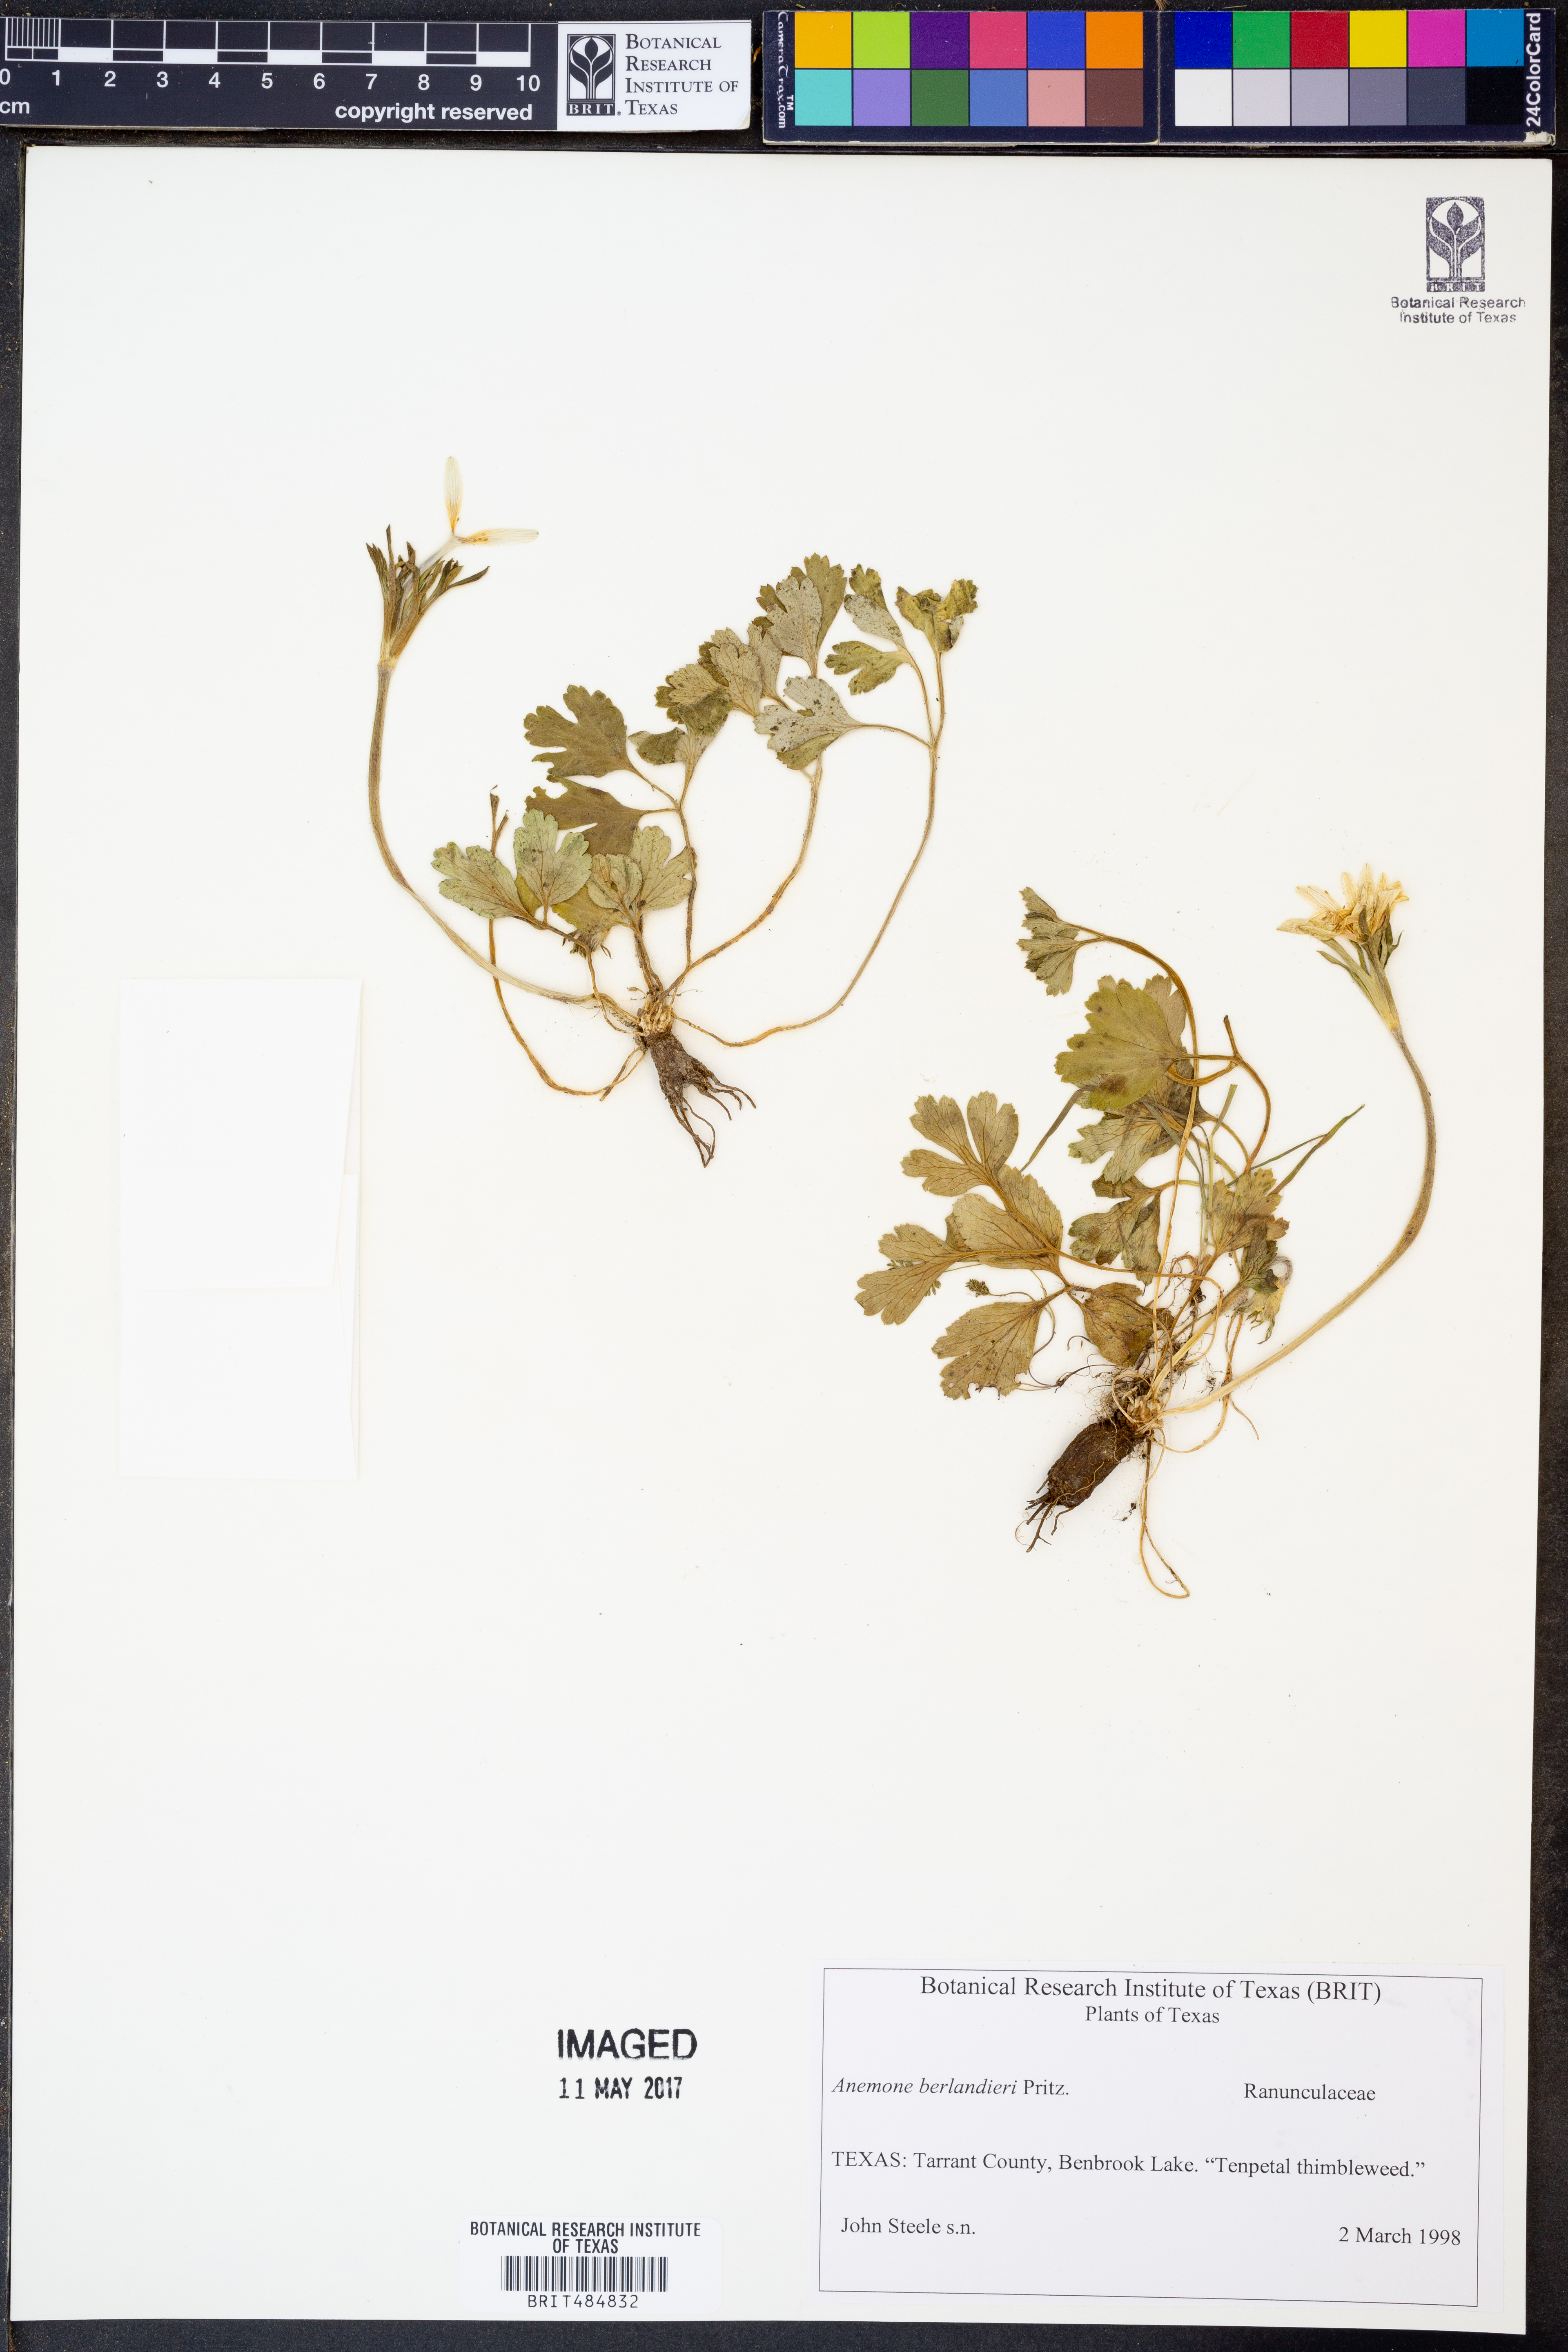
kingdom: Plantae
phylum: Tracheophyta
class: Magnoliopsida
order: Ranunculales
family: Ranunculaceae
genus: Anemone
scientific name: Anemone berlandieri
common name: Ten-petal anemone
